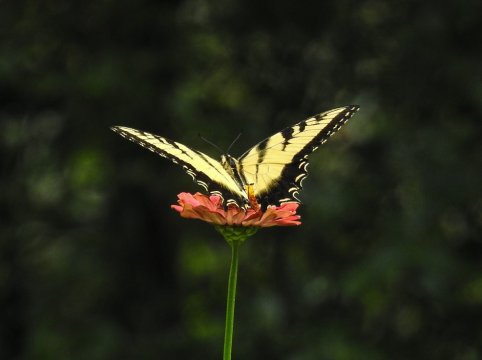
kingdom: Animalia
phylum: Arthropoda
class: Insecta
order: Lepidoptera
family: Papilionidae
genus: Pterourus
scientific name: Pterourus glaucus
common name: Eastern Tiger Swallowtail
